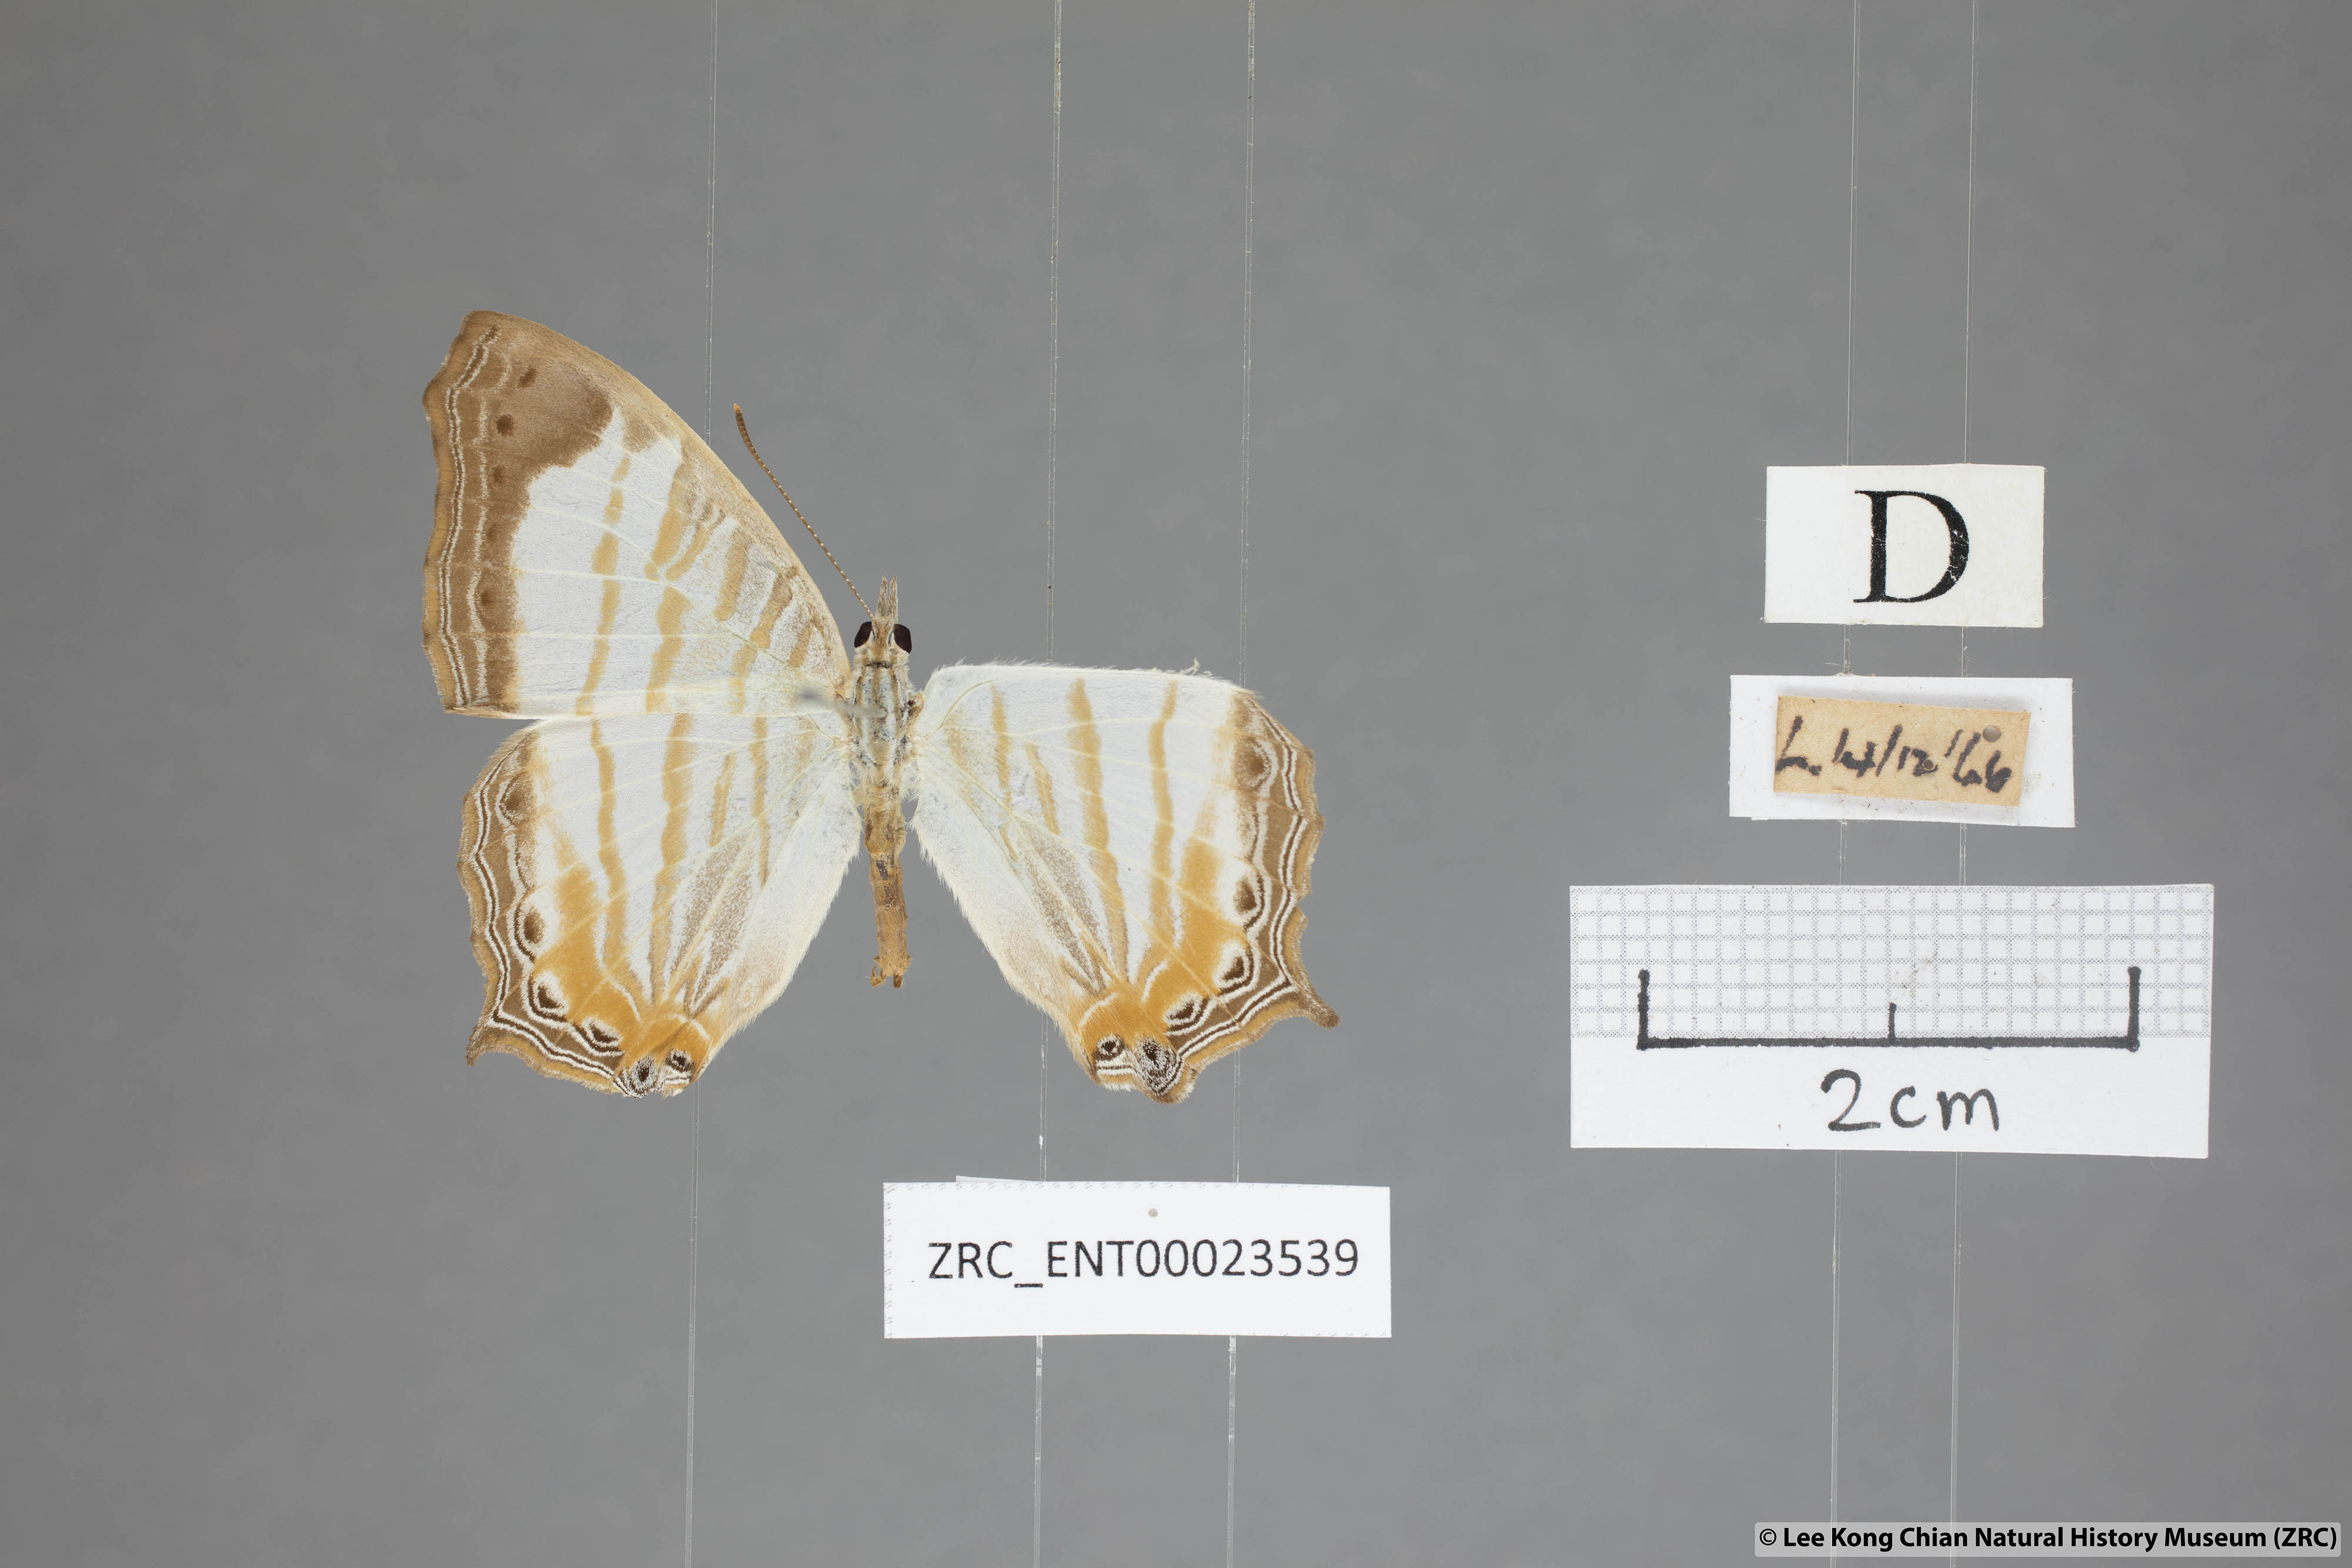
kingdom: Animalia
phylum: Arthropoda
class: Insecta
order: Lepidoptera
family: Nymphalidae
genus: Cyrestis
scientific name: Cyrestis themire
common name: Little mapwing
